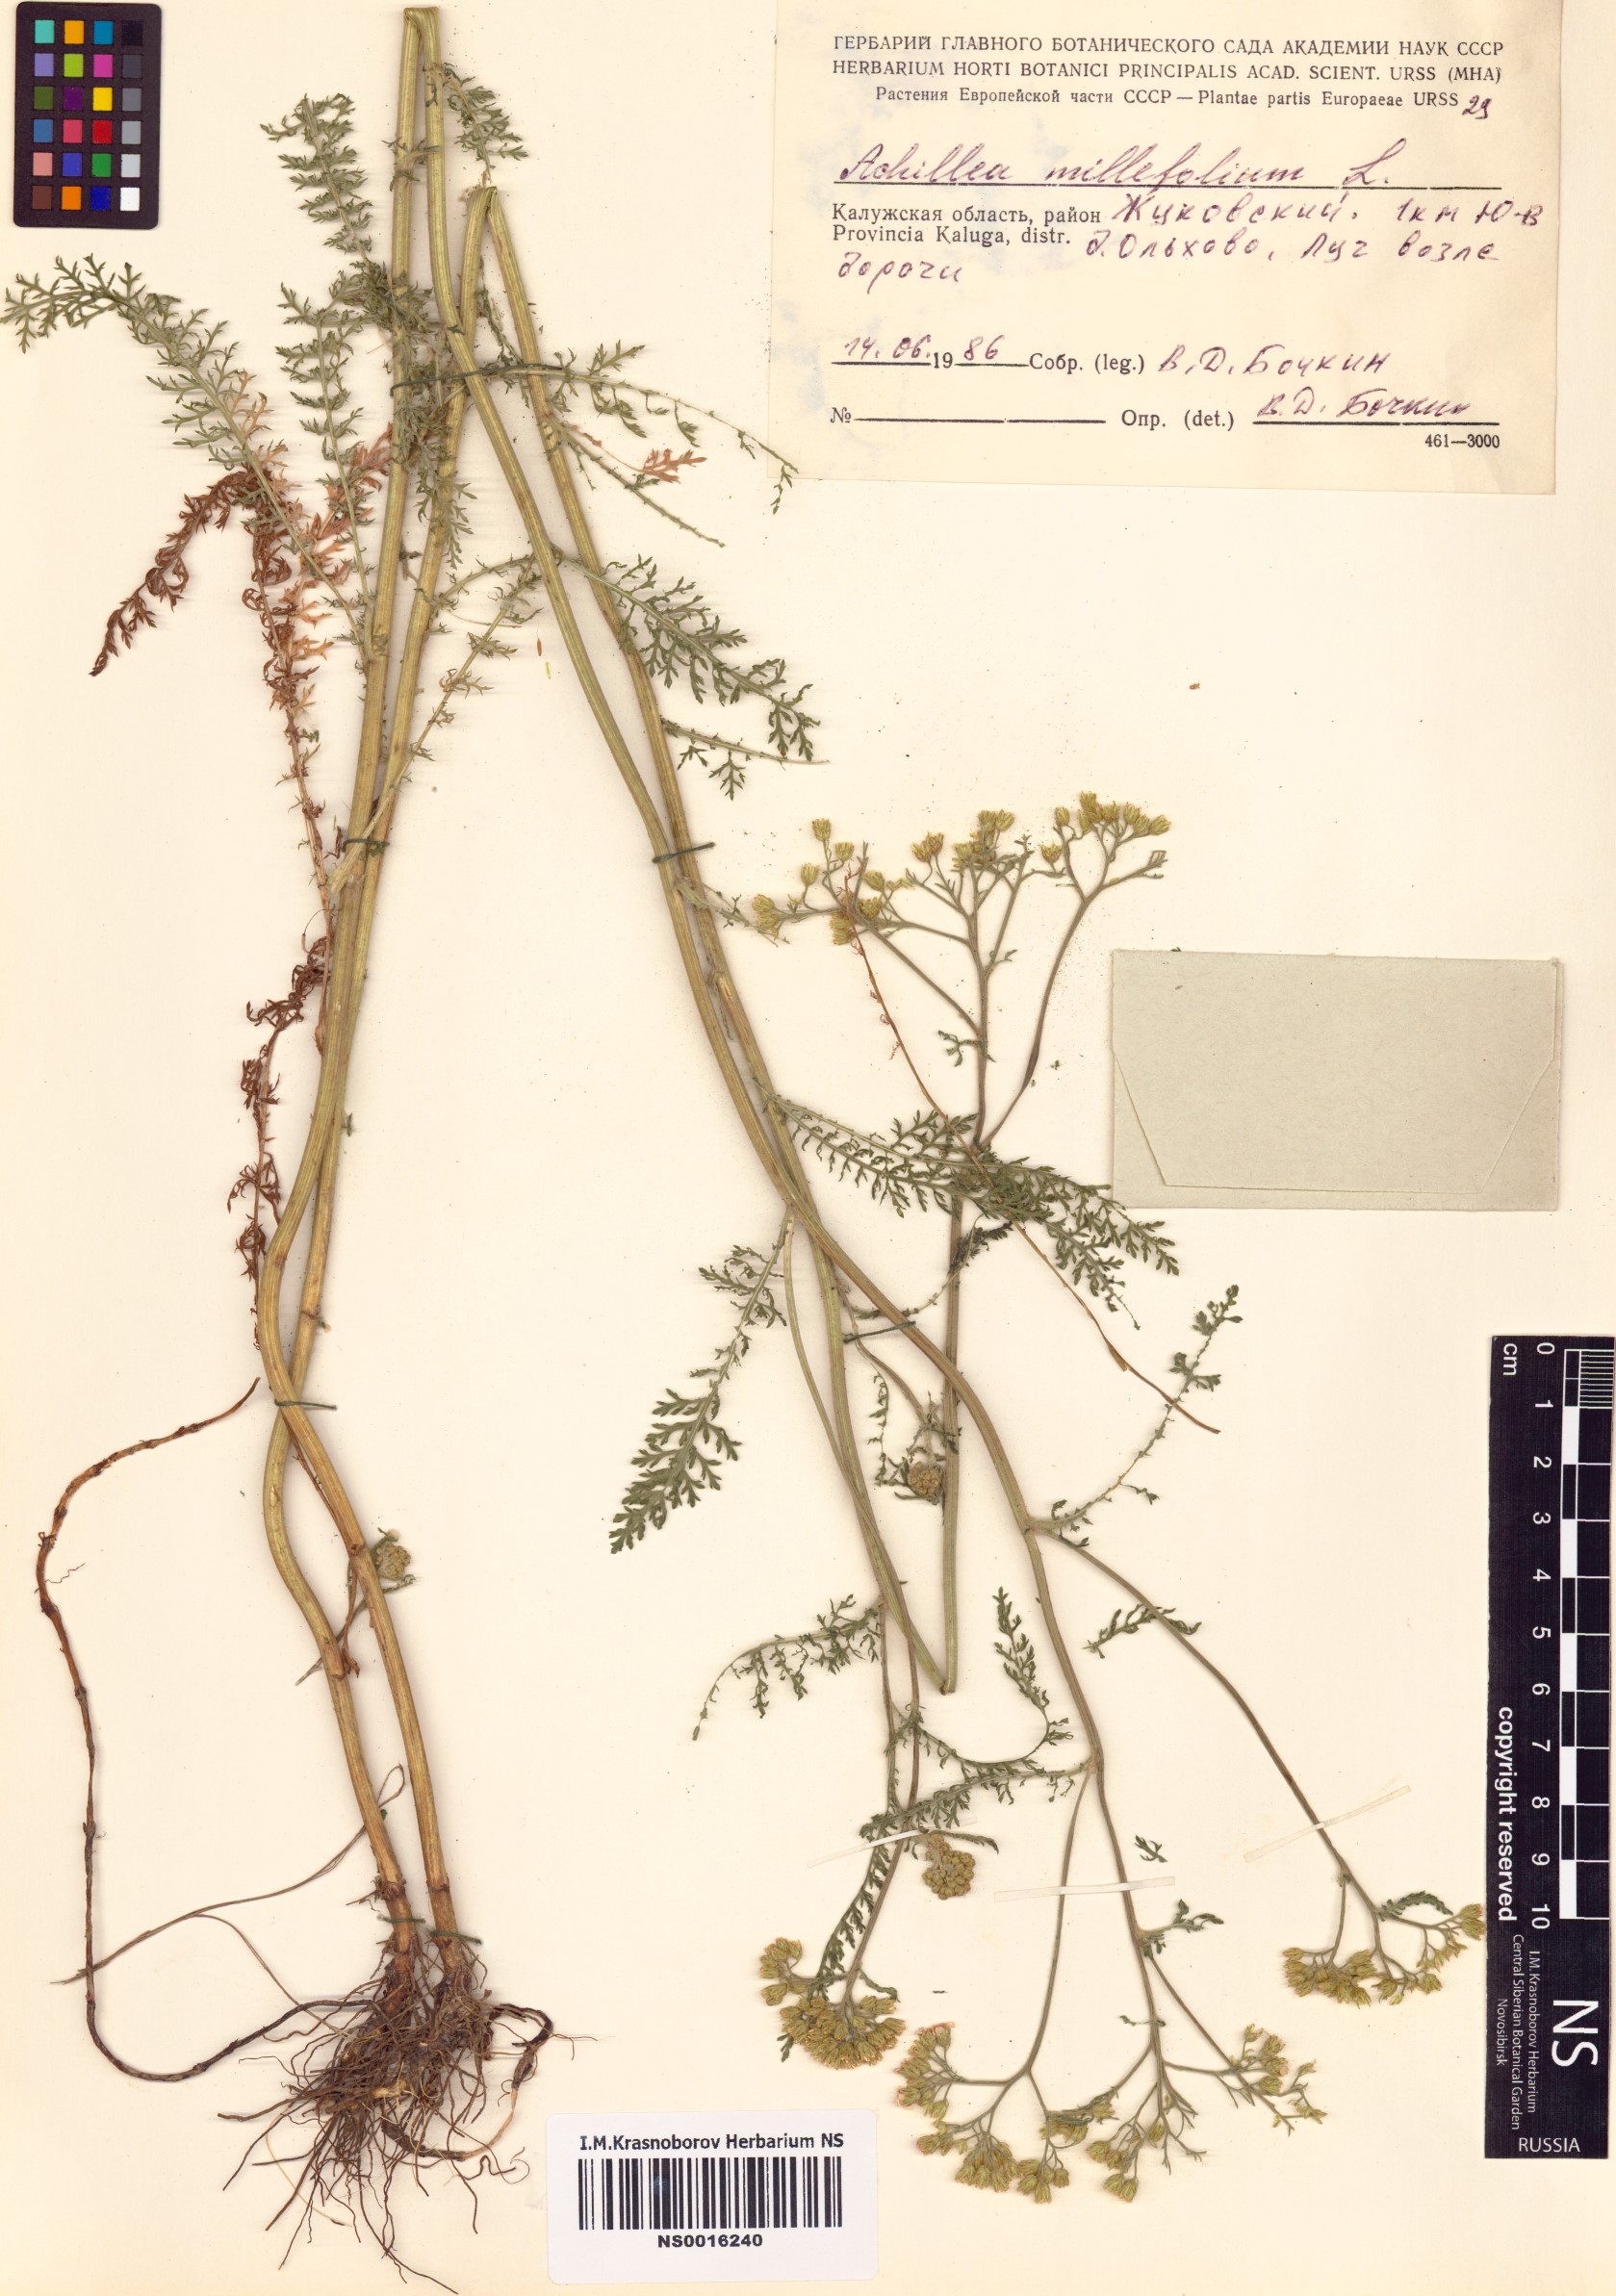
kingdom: Plantae
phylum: Tracheophyta
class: Magnoliopsida
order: Asterales
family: Asteraceae
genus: Achillea
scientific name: Achillea millefolium
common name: Yarrow
